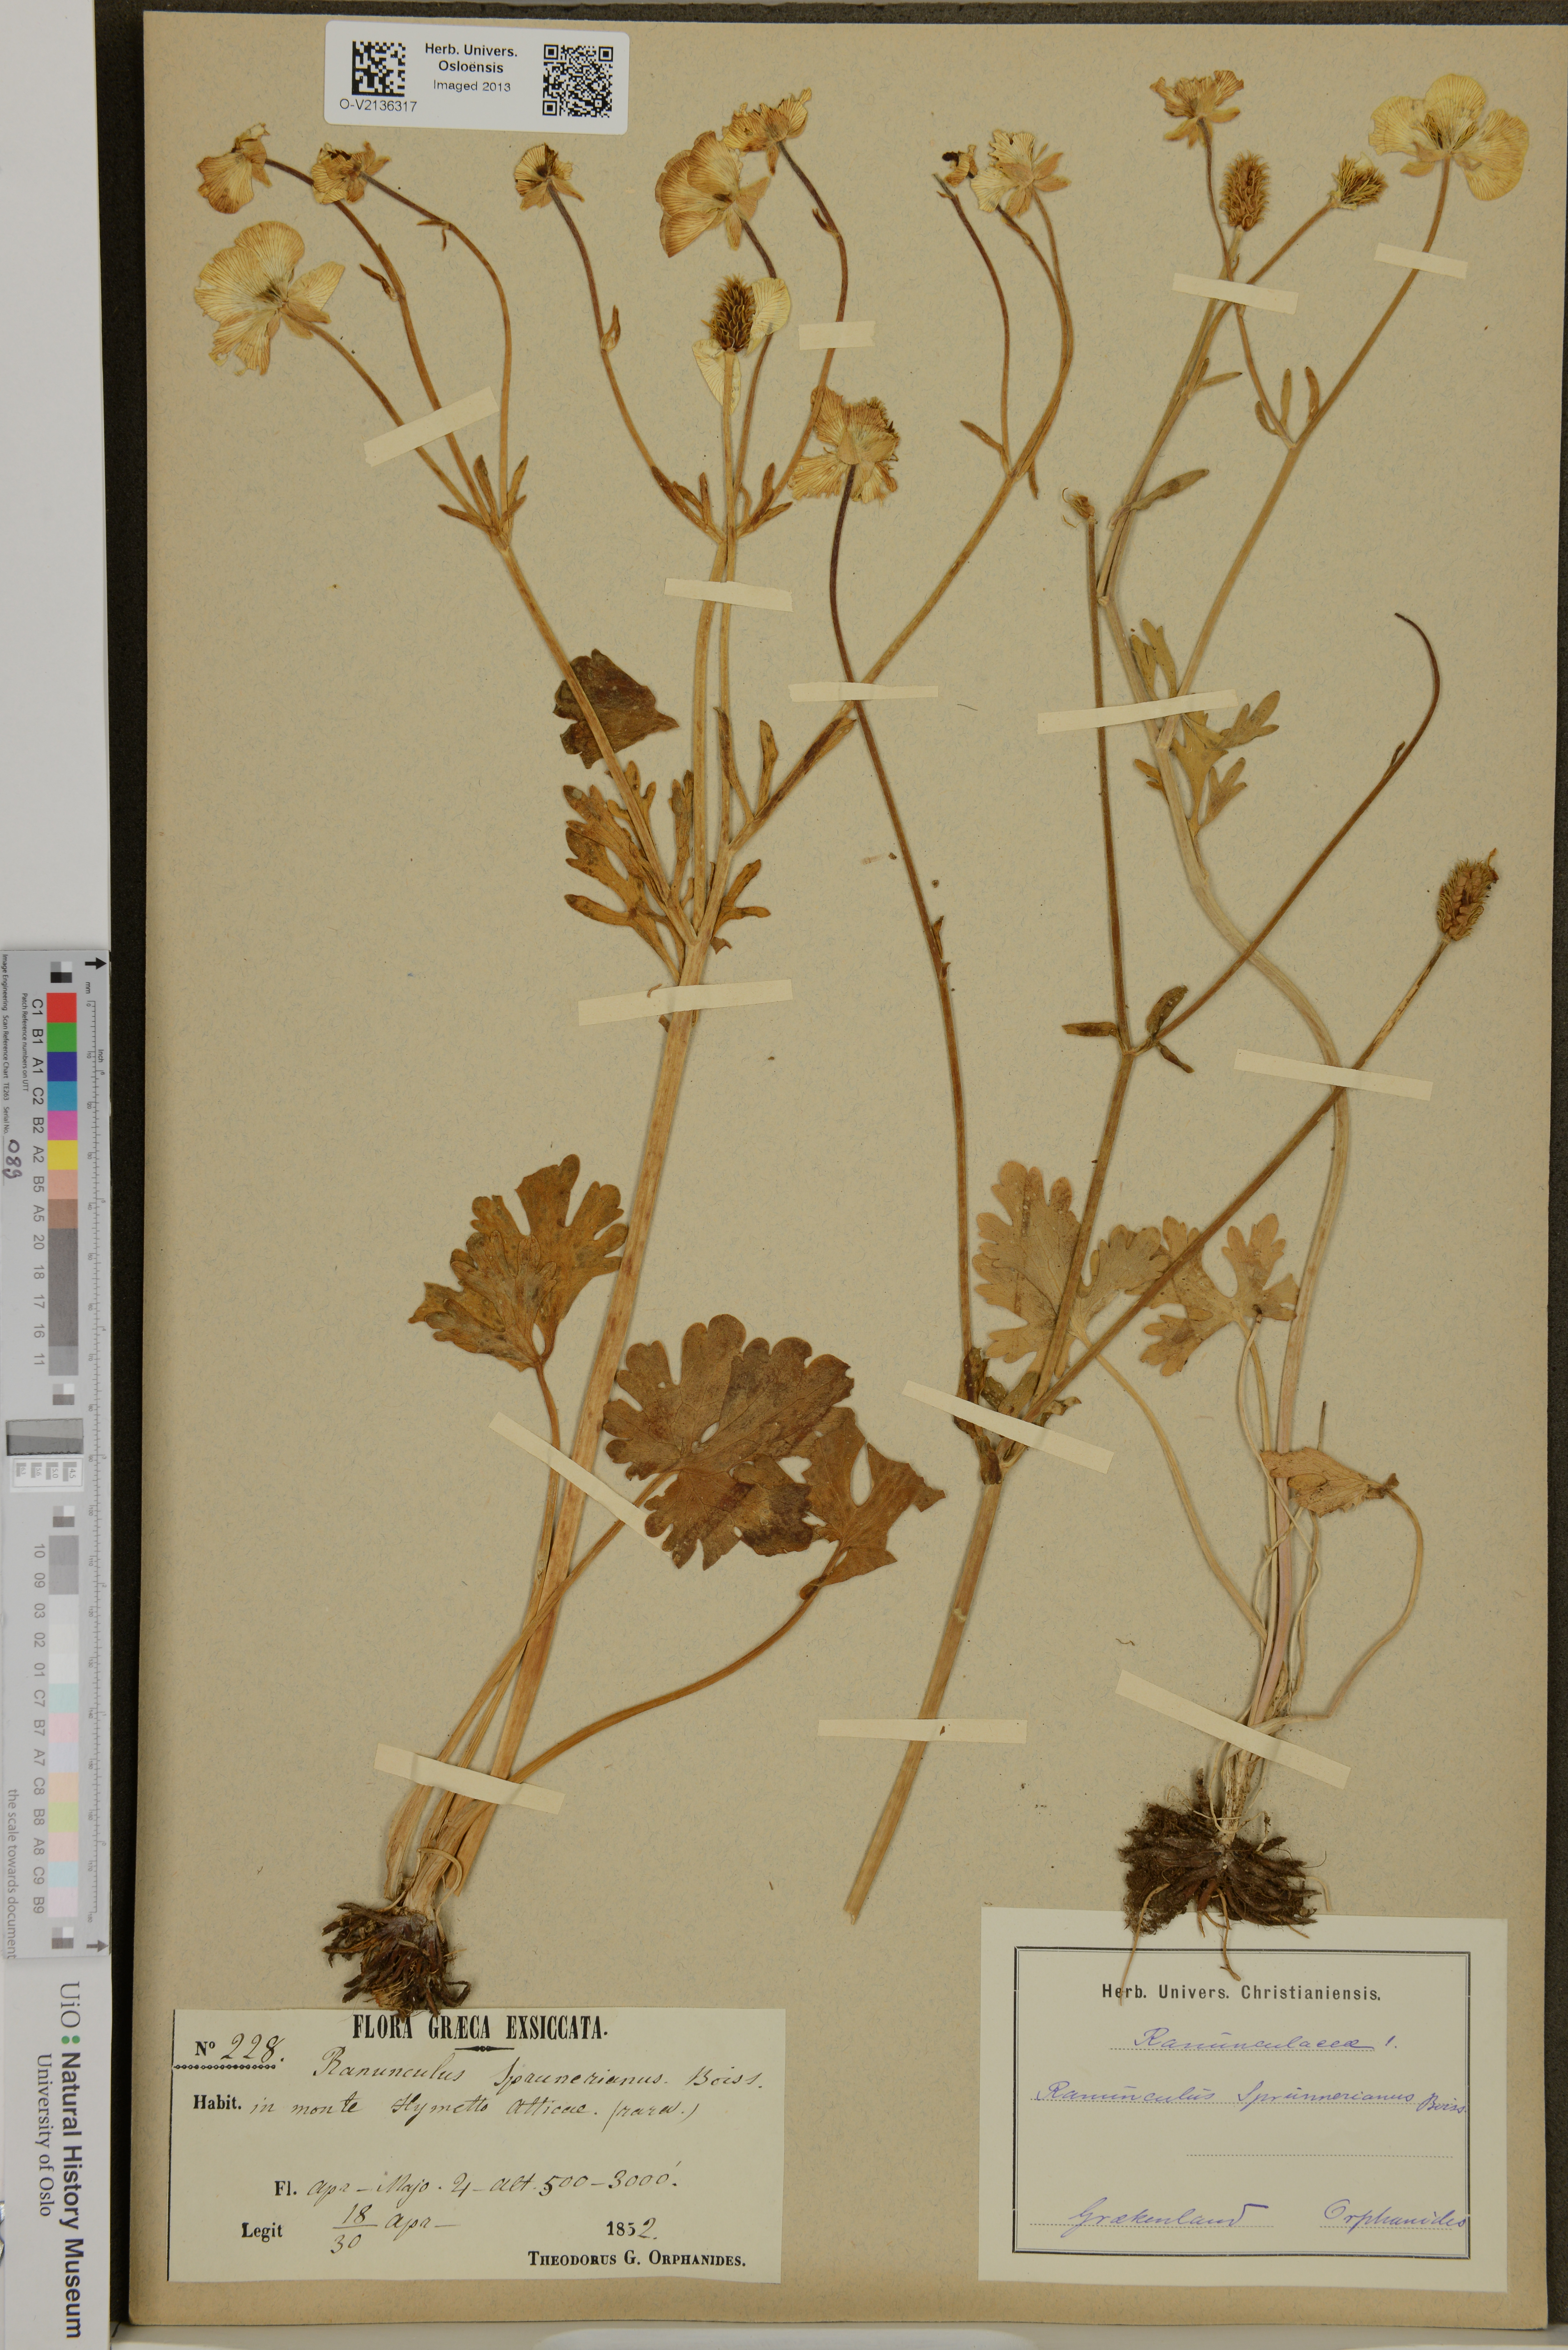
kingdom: Plantae
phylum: Tracheophyta
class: Magnoliopsida
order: Ranunculales
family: Ranunculaceae
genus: Ranunculus
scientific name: Ranunculus sprunerianus
